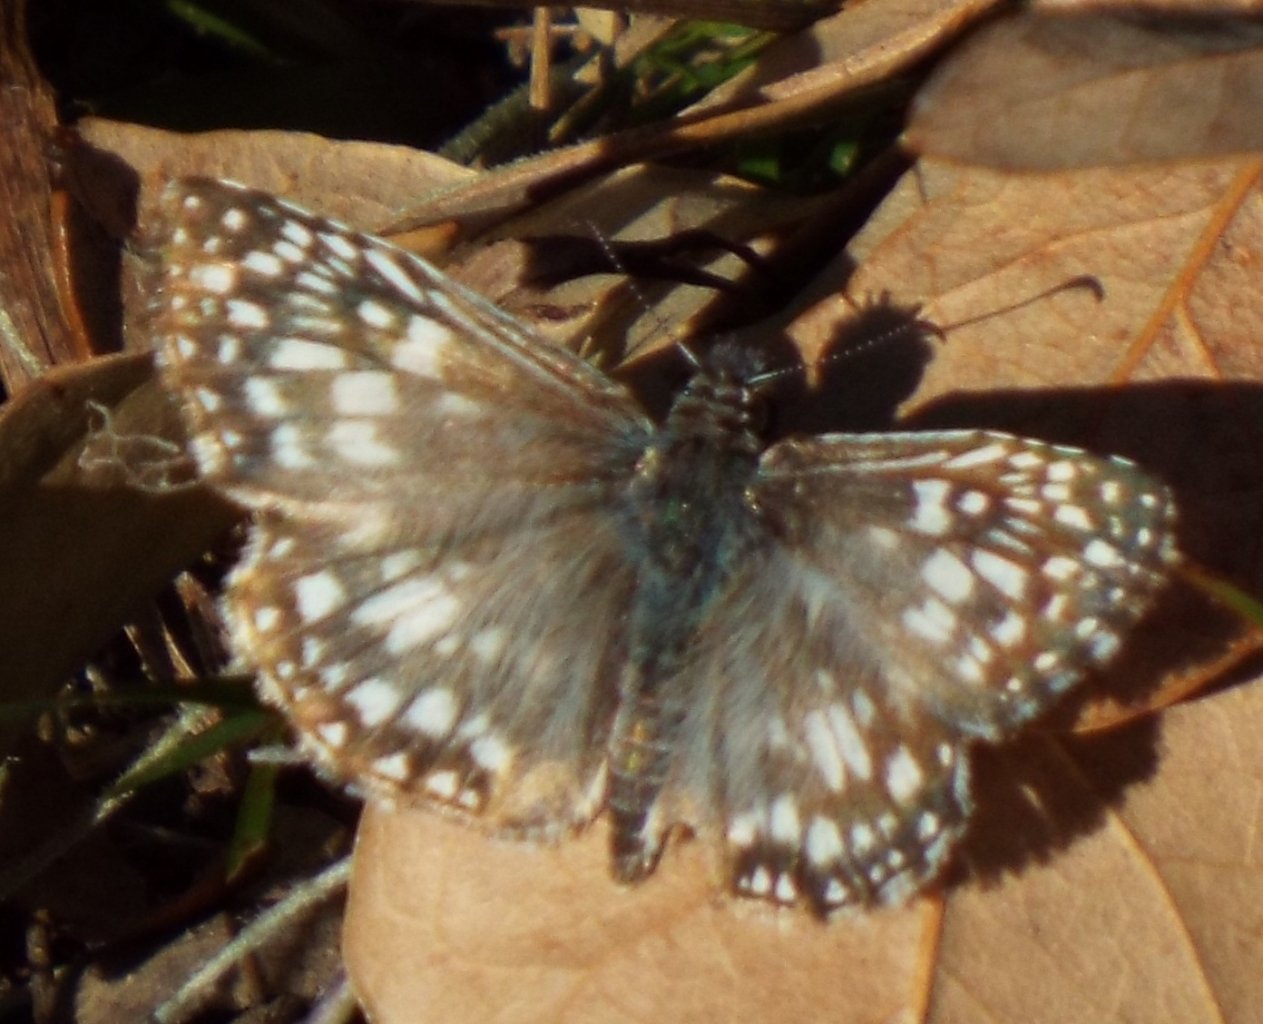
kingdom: Animalia
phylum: Arthropoda
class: Insecta
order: Lepidoptera
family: Hesperiidae
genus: Pyrgus
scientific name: Pyrgus oileus
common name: Tropical Checkered-Skipper
